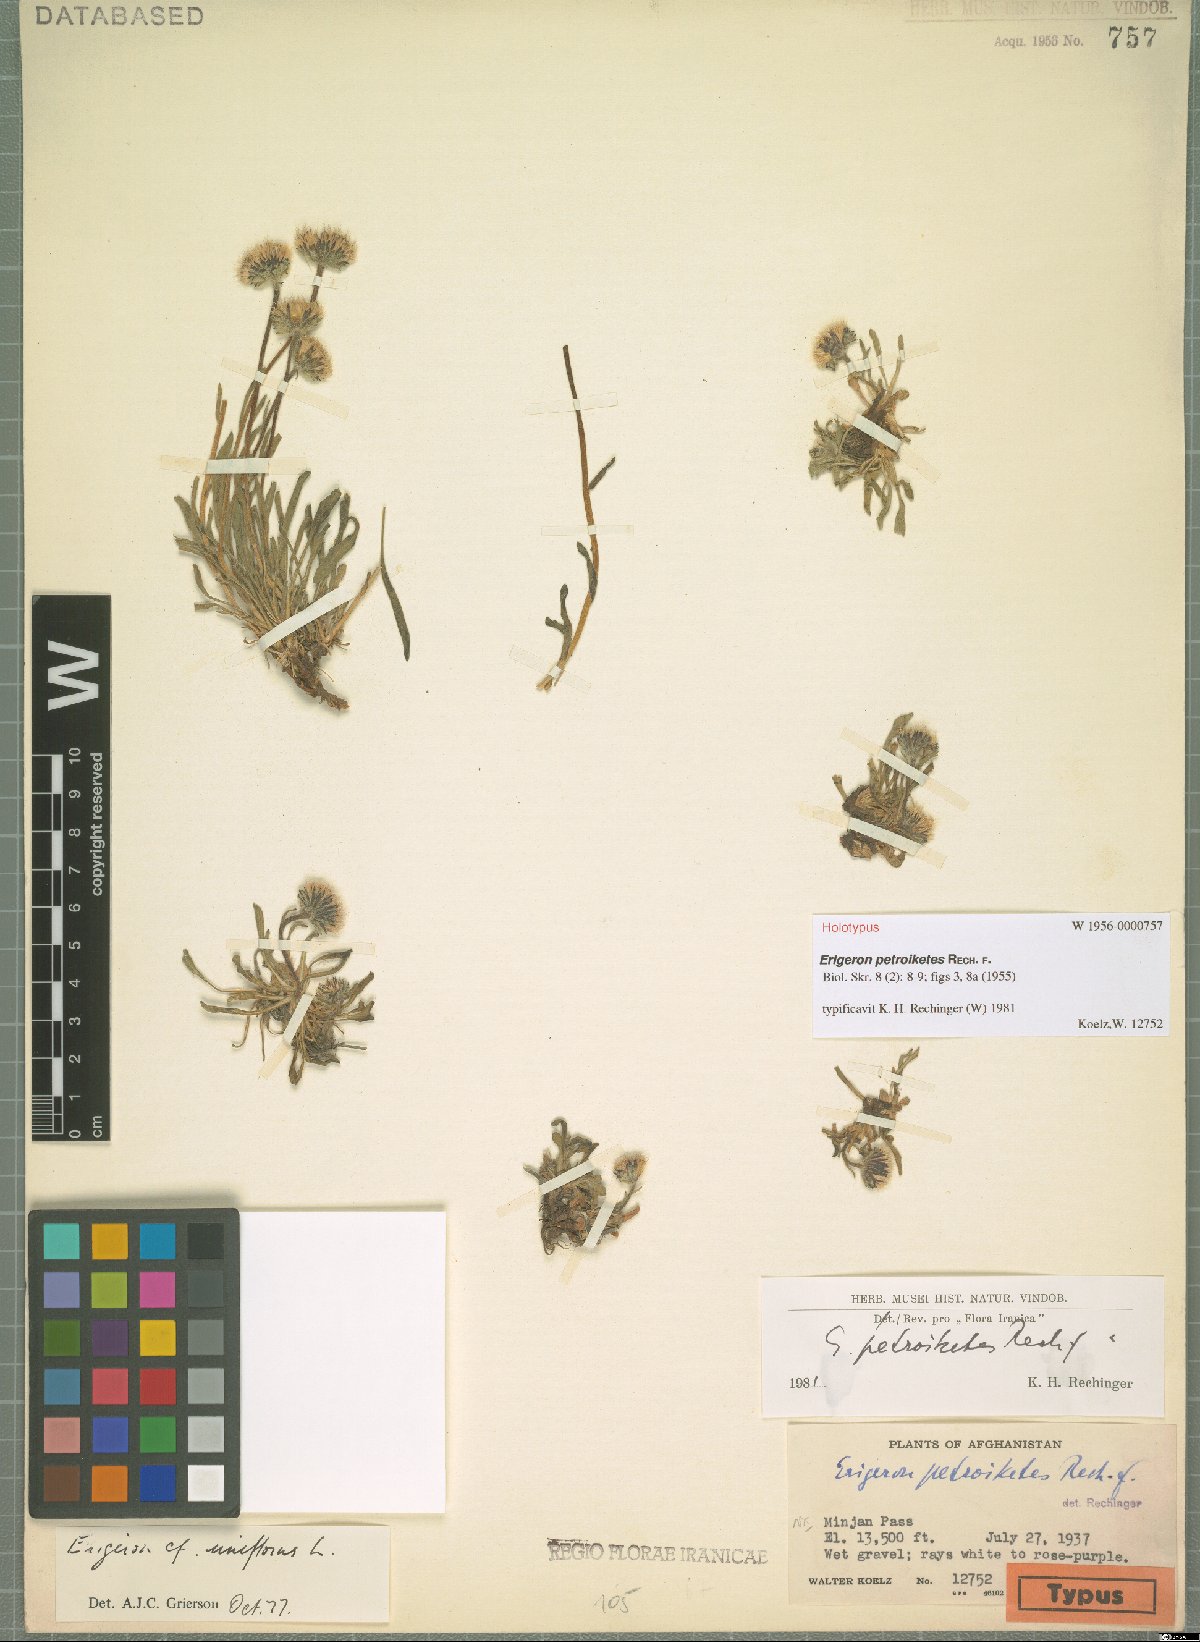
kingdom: Plantae
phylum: Tracheophyta
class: Magnoliopsida
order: Asterales
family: Asteraceae
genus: Erigeron
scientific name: Erigeron petroiketes
